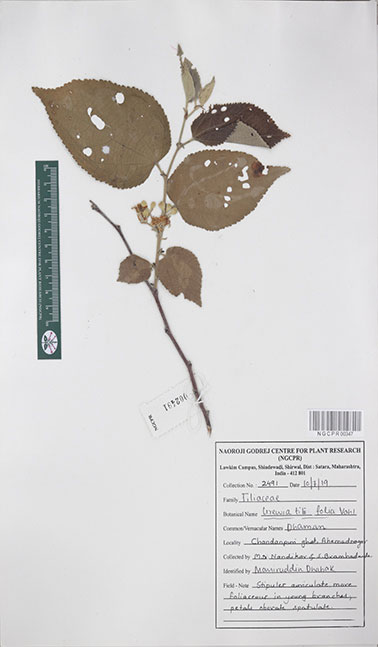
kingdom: Plantae
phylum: Tracheophyta
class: Magnoliopsida
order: Malvales
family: Malvaceae
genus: Grewia
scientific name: Grewia tiliifolia
